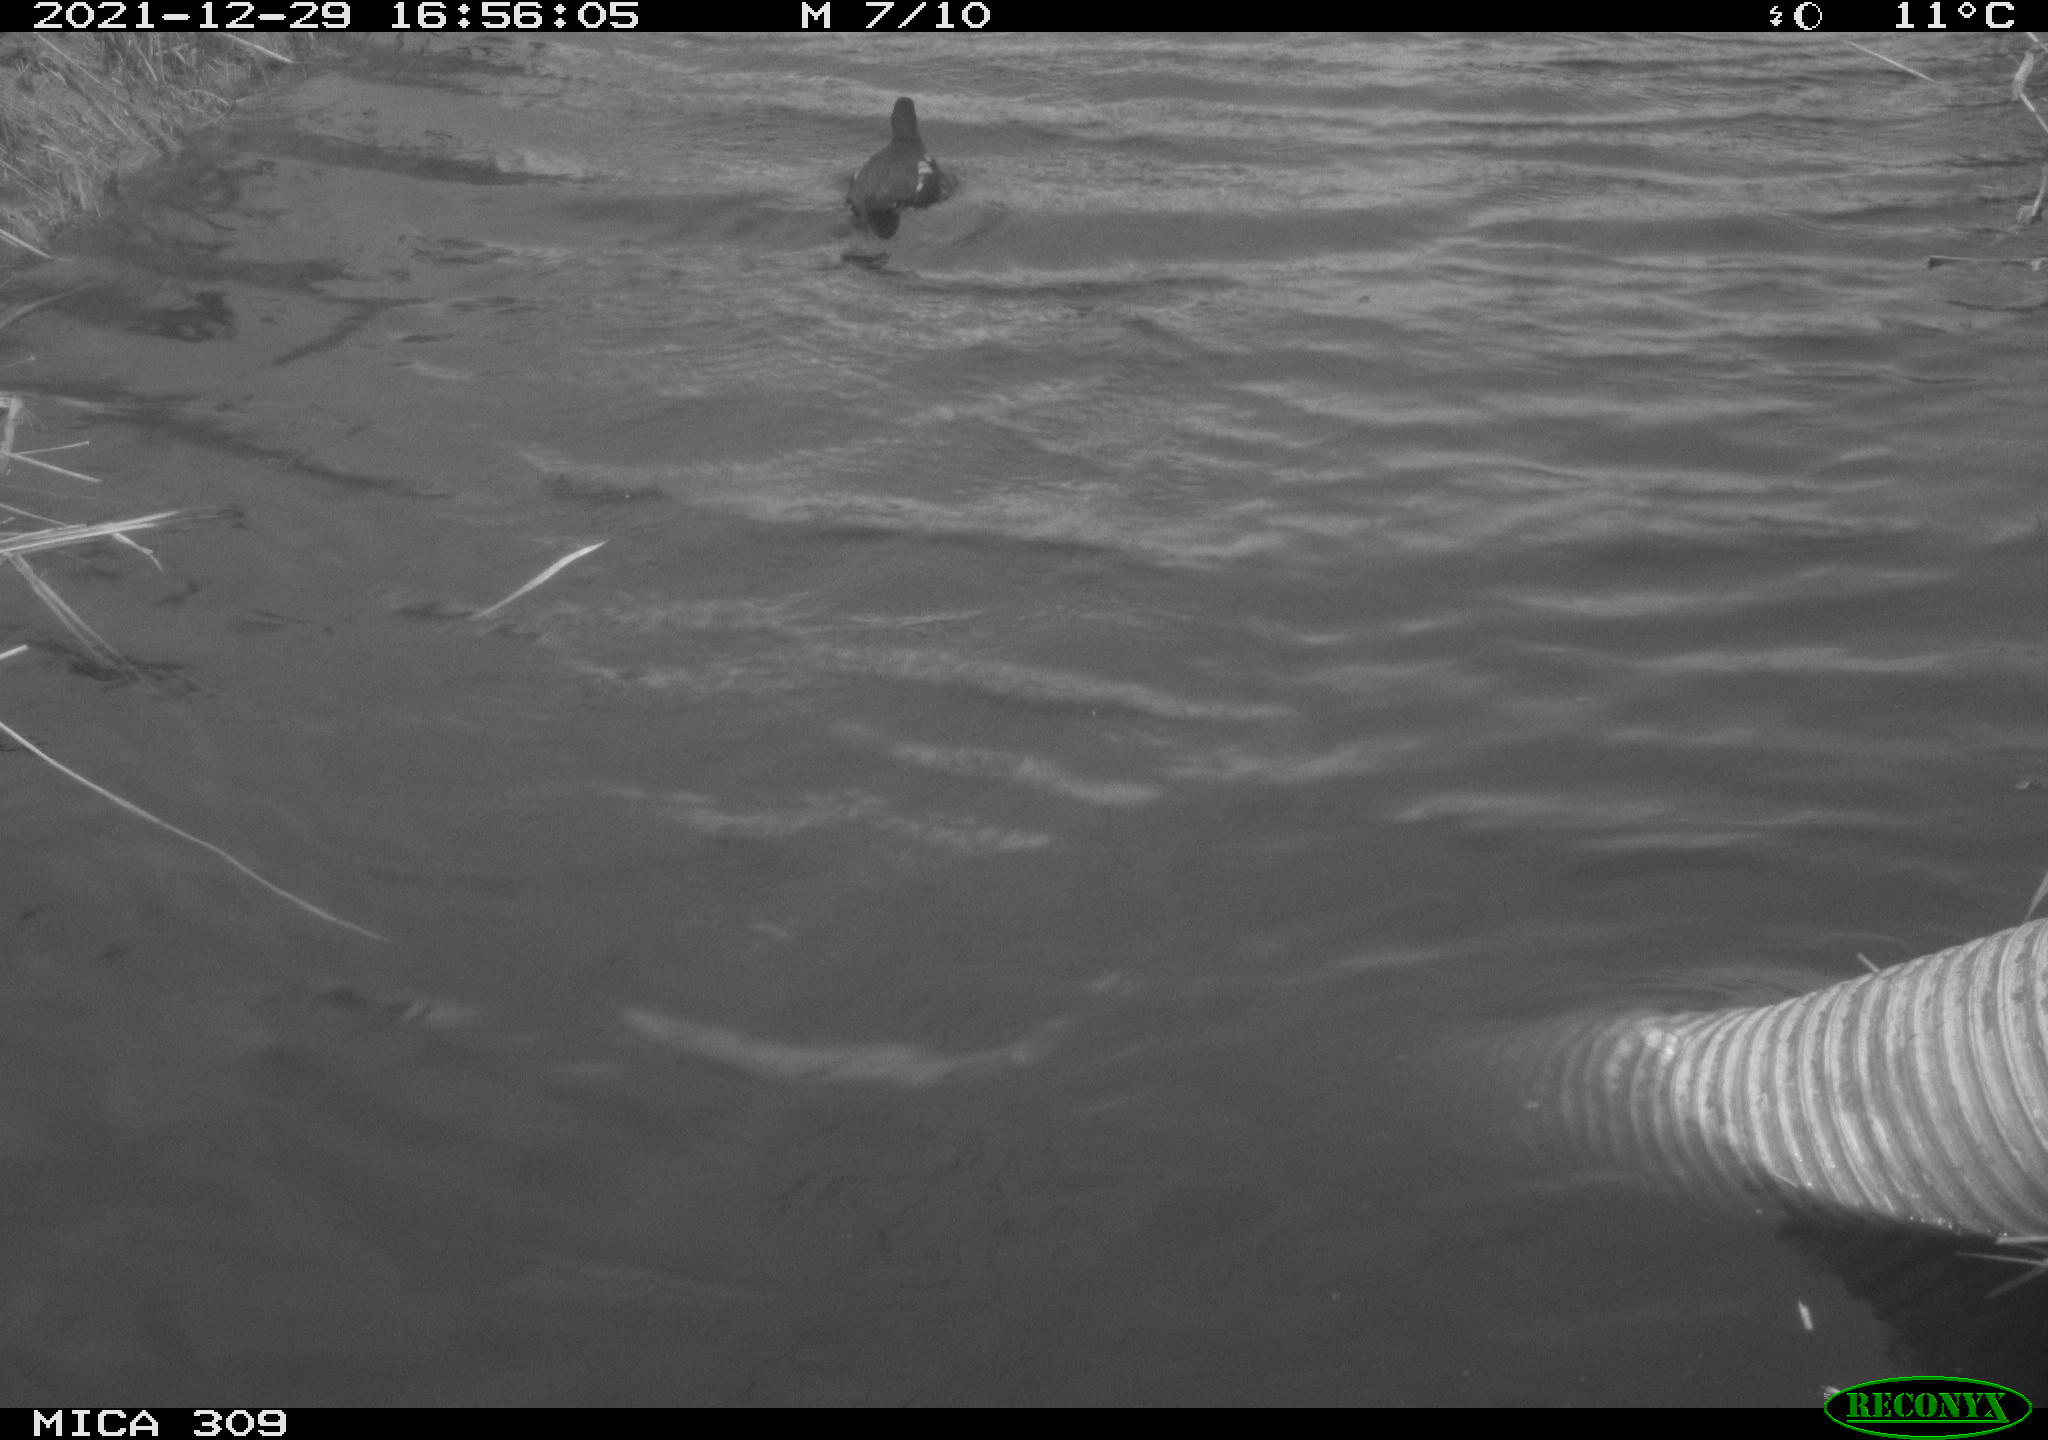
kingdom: Animalia
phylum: Chordata
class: Aves
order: Gruiformes
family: Rallidae
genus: Gallinula
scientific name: Gallinula chloropus
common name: Common moorhen
